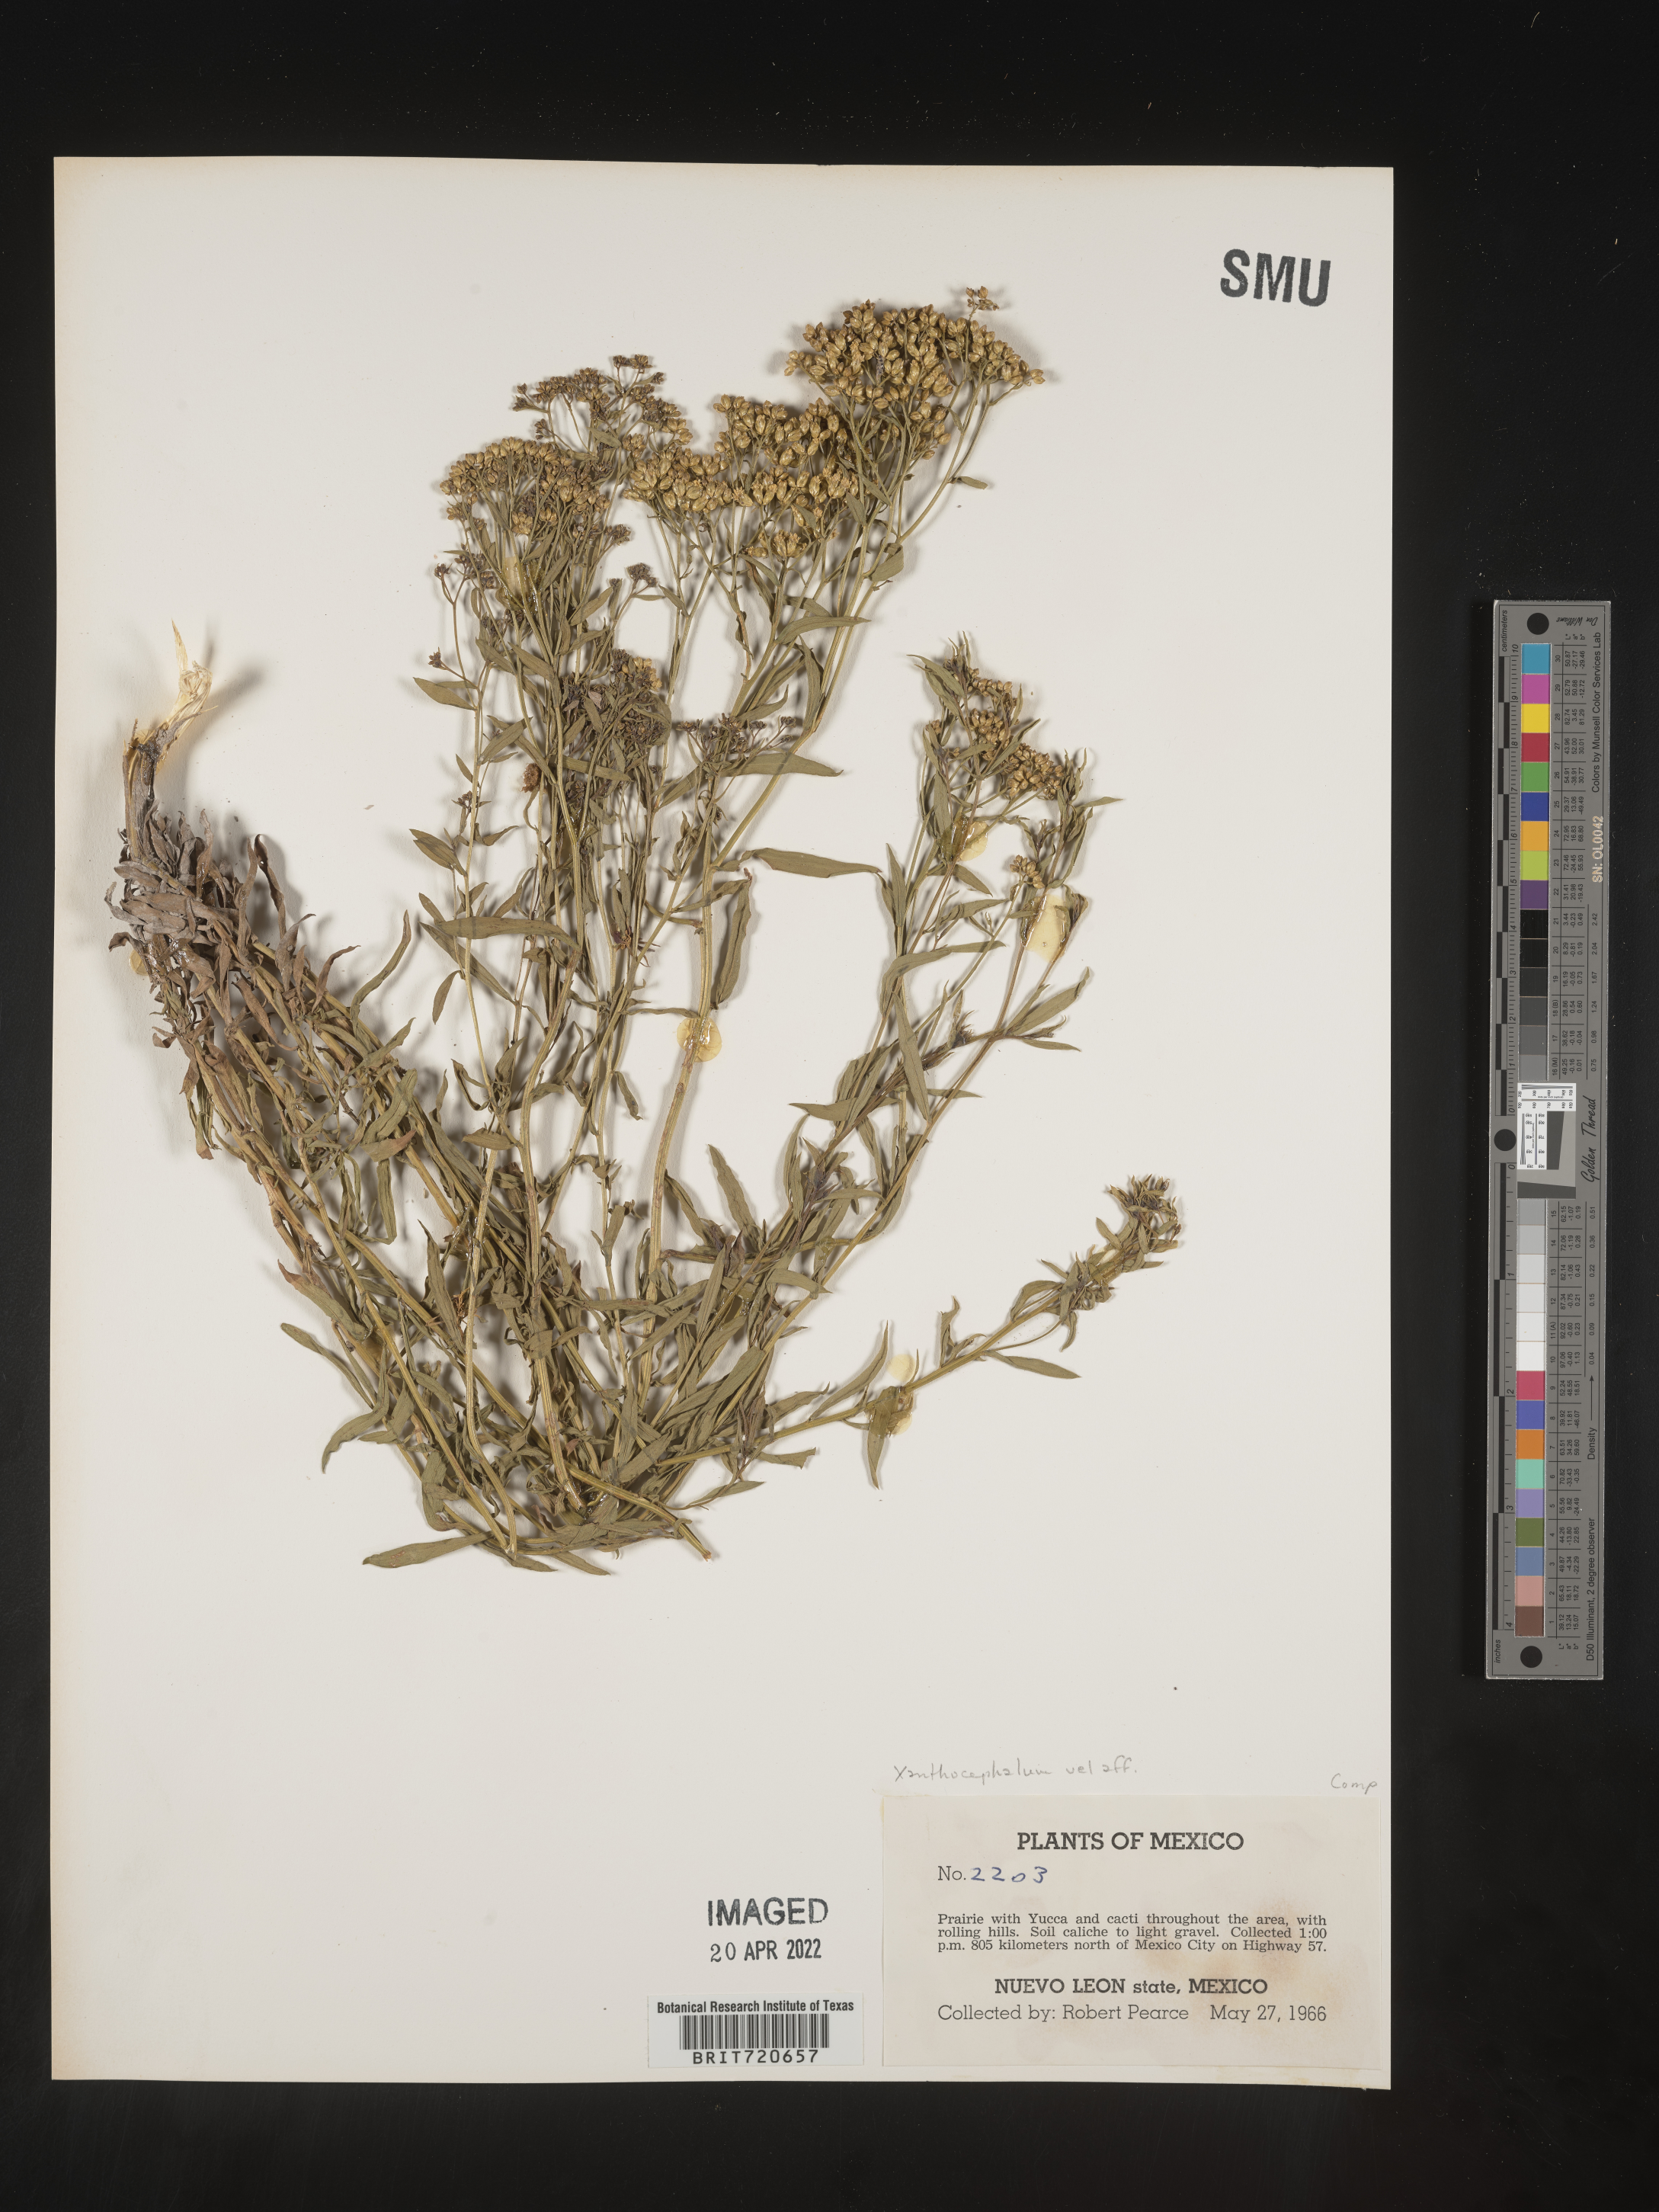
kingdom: Plantae
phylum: Tracheophyta
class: Magnoliopsida
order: Asterales
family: Asteraceae
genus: Gymnosperma
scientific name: Gymnosperma glutinosum
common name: Gumhead
